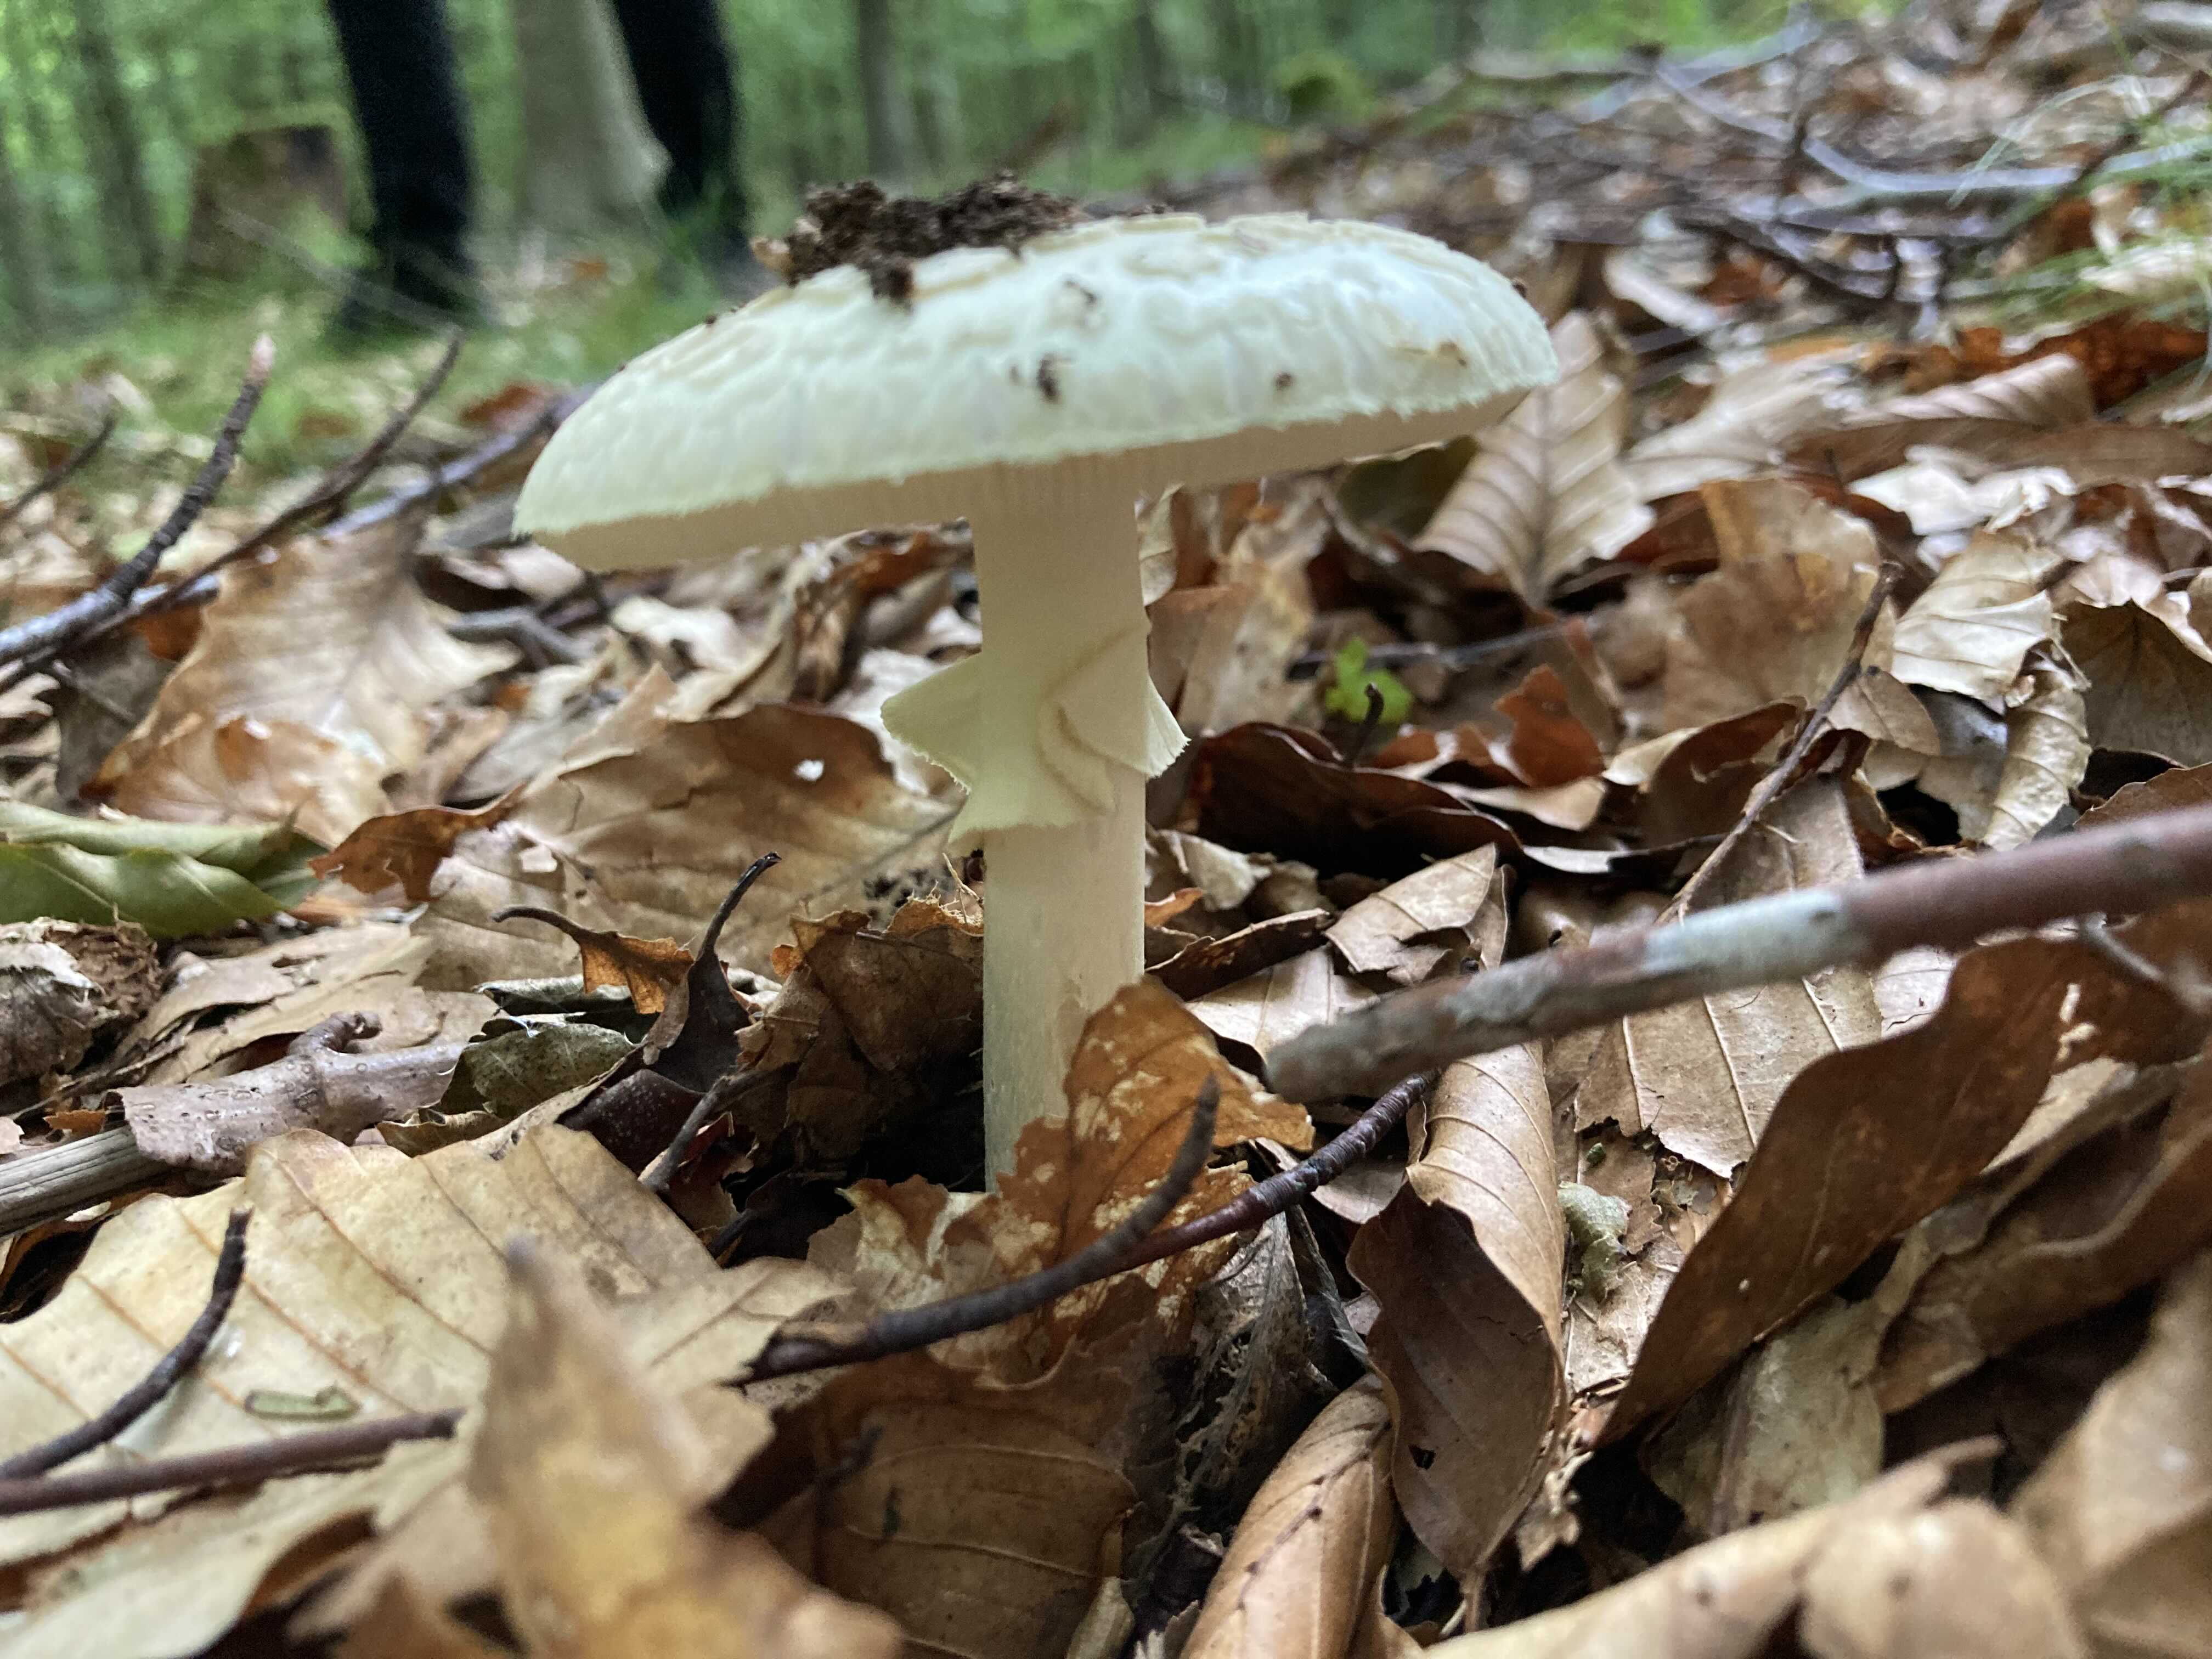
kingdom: Fungi
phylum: Basidiomycota
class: Agaricomycetes
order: Agaricales
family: Amanitaceae
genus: Amanita
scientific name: Amanita citrina
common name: kugleknoldet fluesvamp
